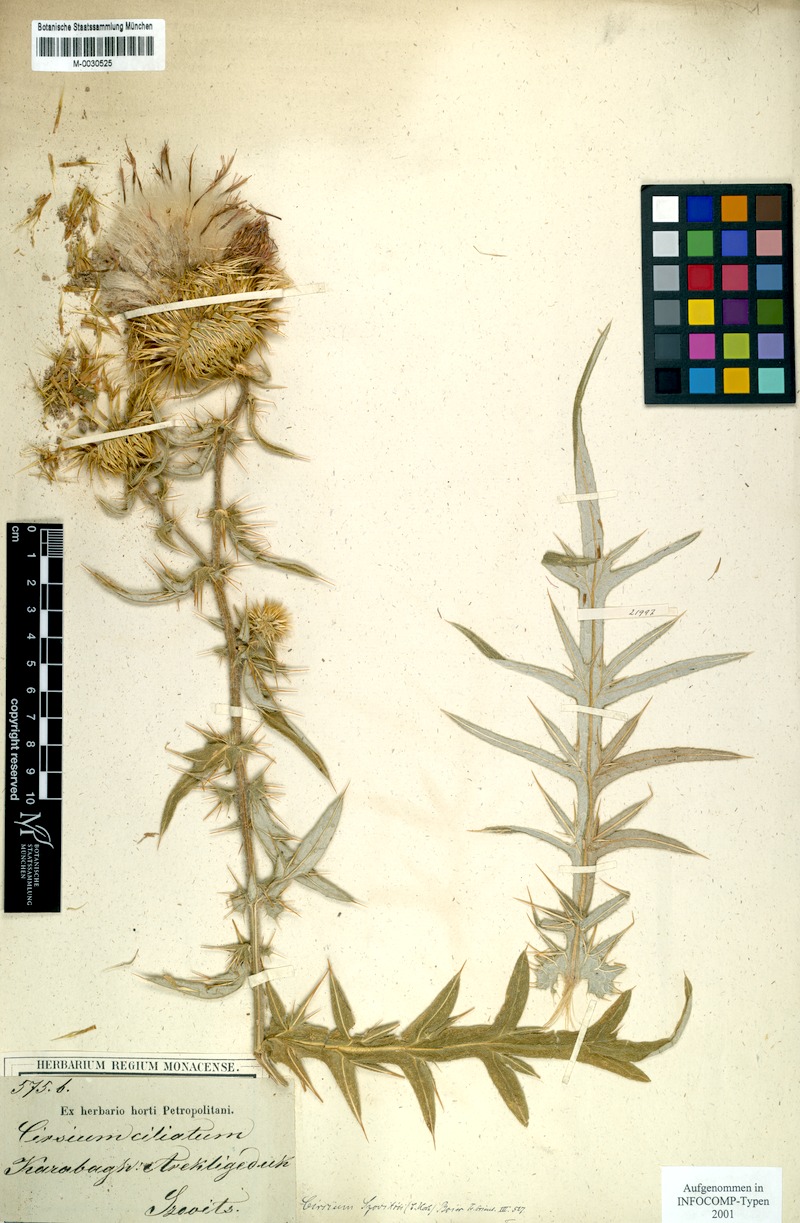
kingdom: Plantae
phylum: Tracheophyta
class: Magnoliopsida
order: Asterales
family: Asteraceae
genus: Lophiolepis
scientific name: Lophiolepis ciliata
